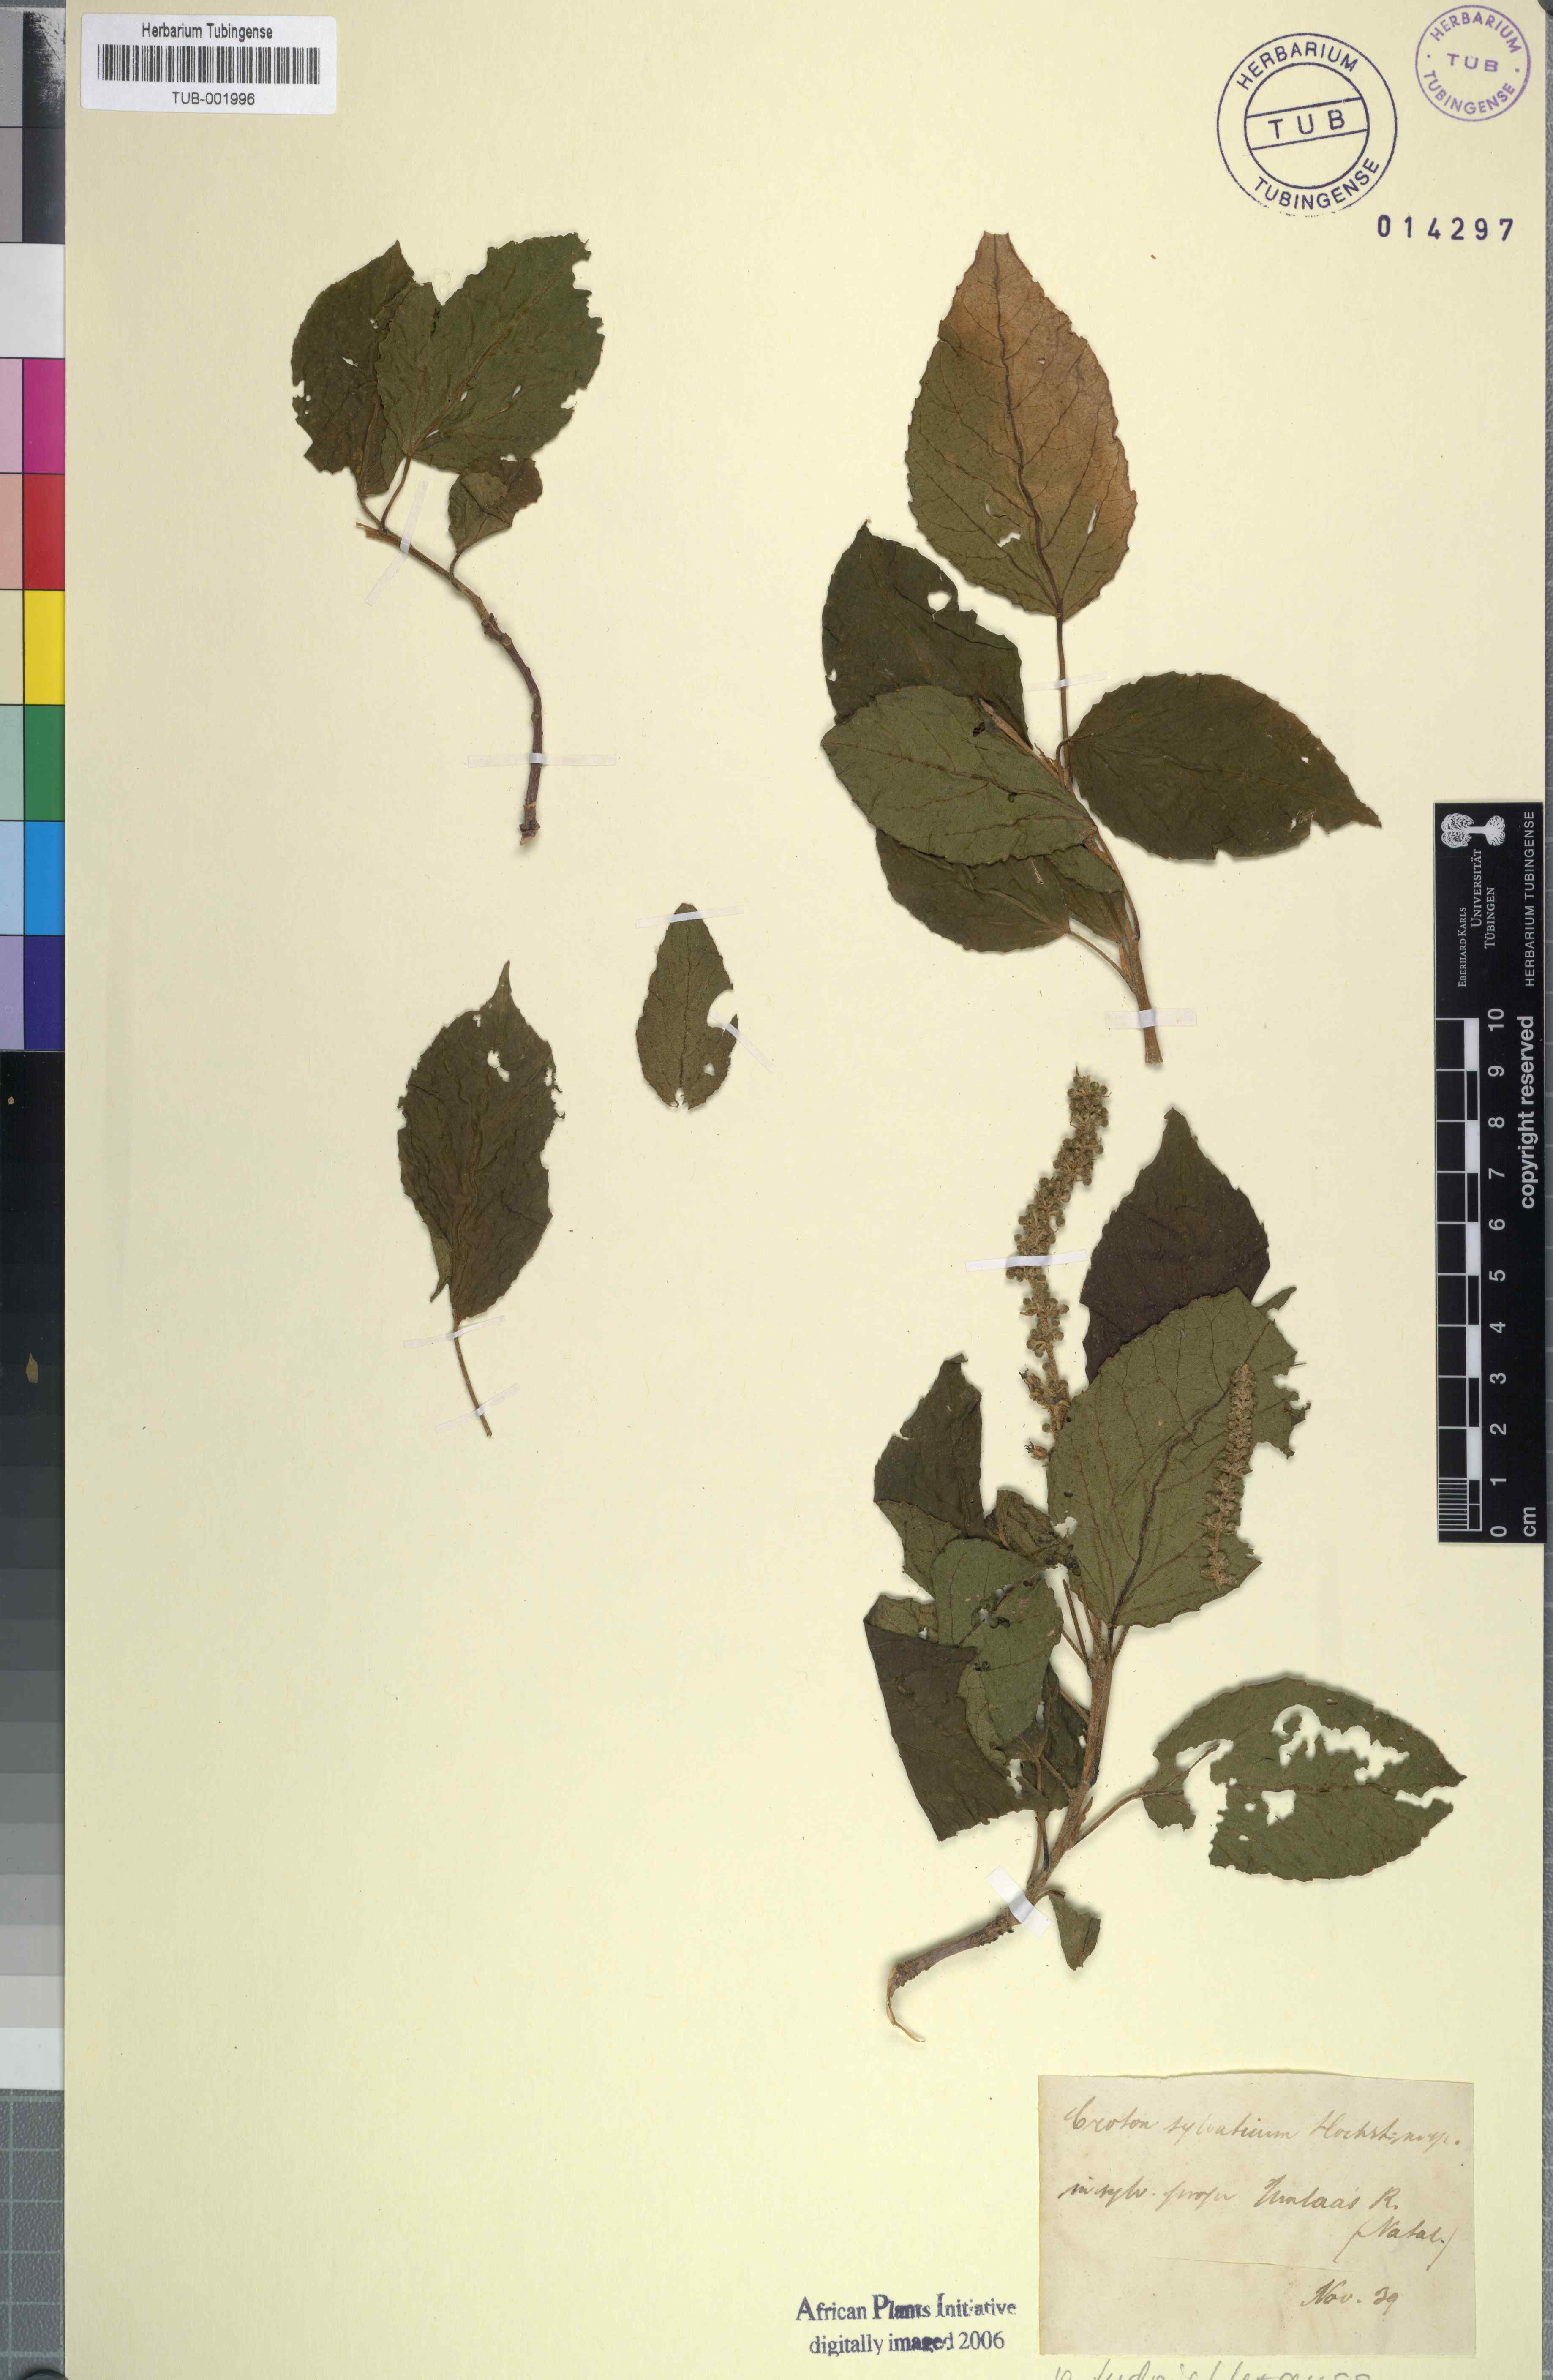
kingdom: Plantae
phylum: Tracheophyta
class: Magnoliopsida
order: Malpighiales
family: Euphorbiaceae
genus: Croton
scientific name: Croton sylvaticus
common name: Forest croton
